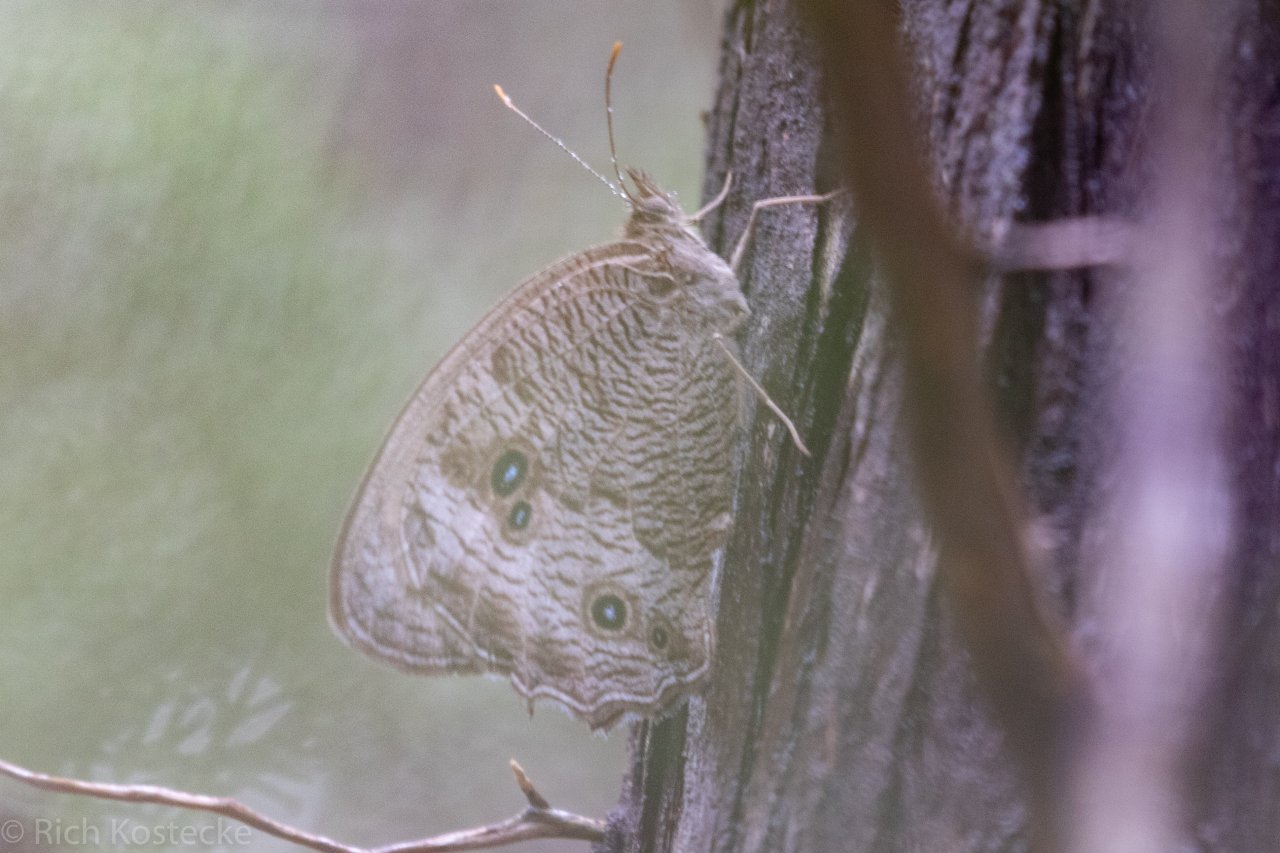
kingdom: Animalia
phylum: Arthropoda
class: Insecta
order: Lepidoptera
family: Nymphalidae
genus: Cercyonis
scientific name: Cercyonis pegala
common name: Common Wood-Nymph
